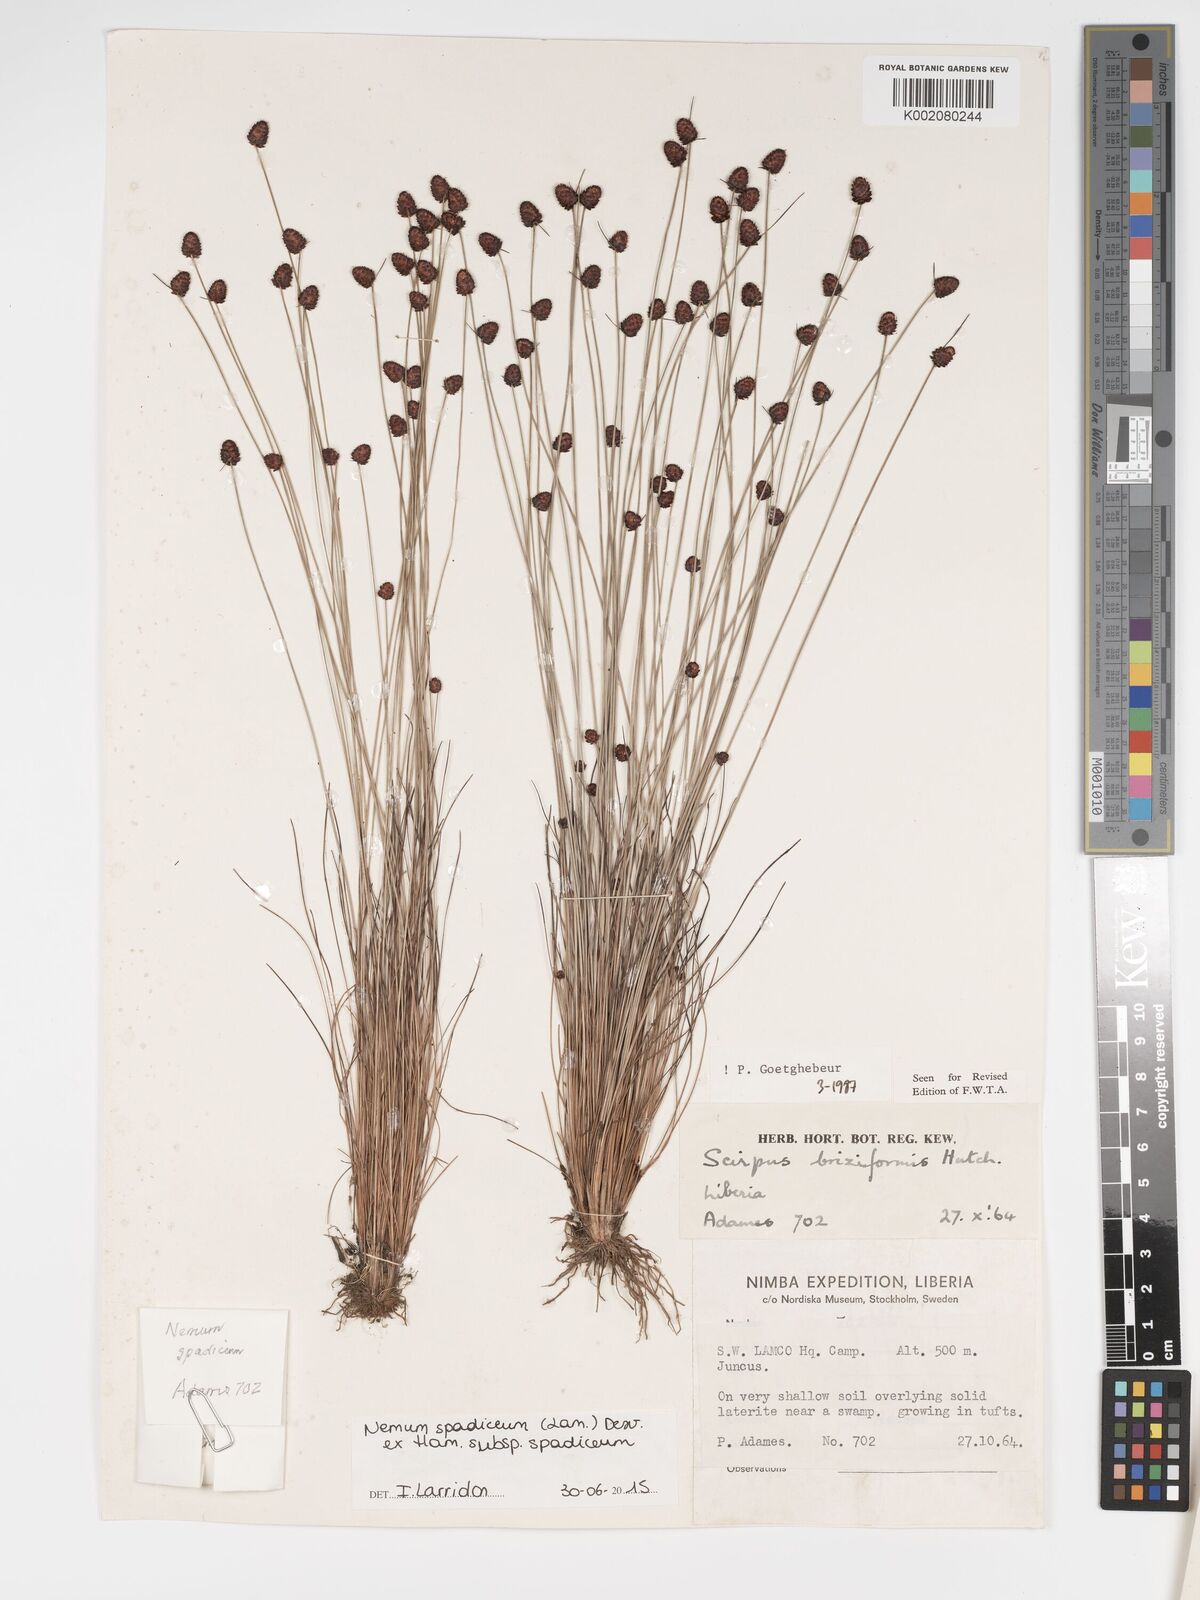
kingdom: Plantae
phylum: Tracheophyta
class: Liliopsida
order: Poales
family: Cyperaceae
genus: Bulbostylis
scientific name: Bulbostylis briziformis
